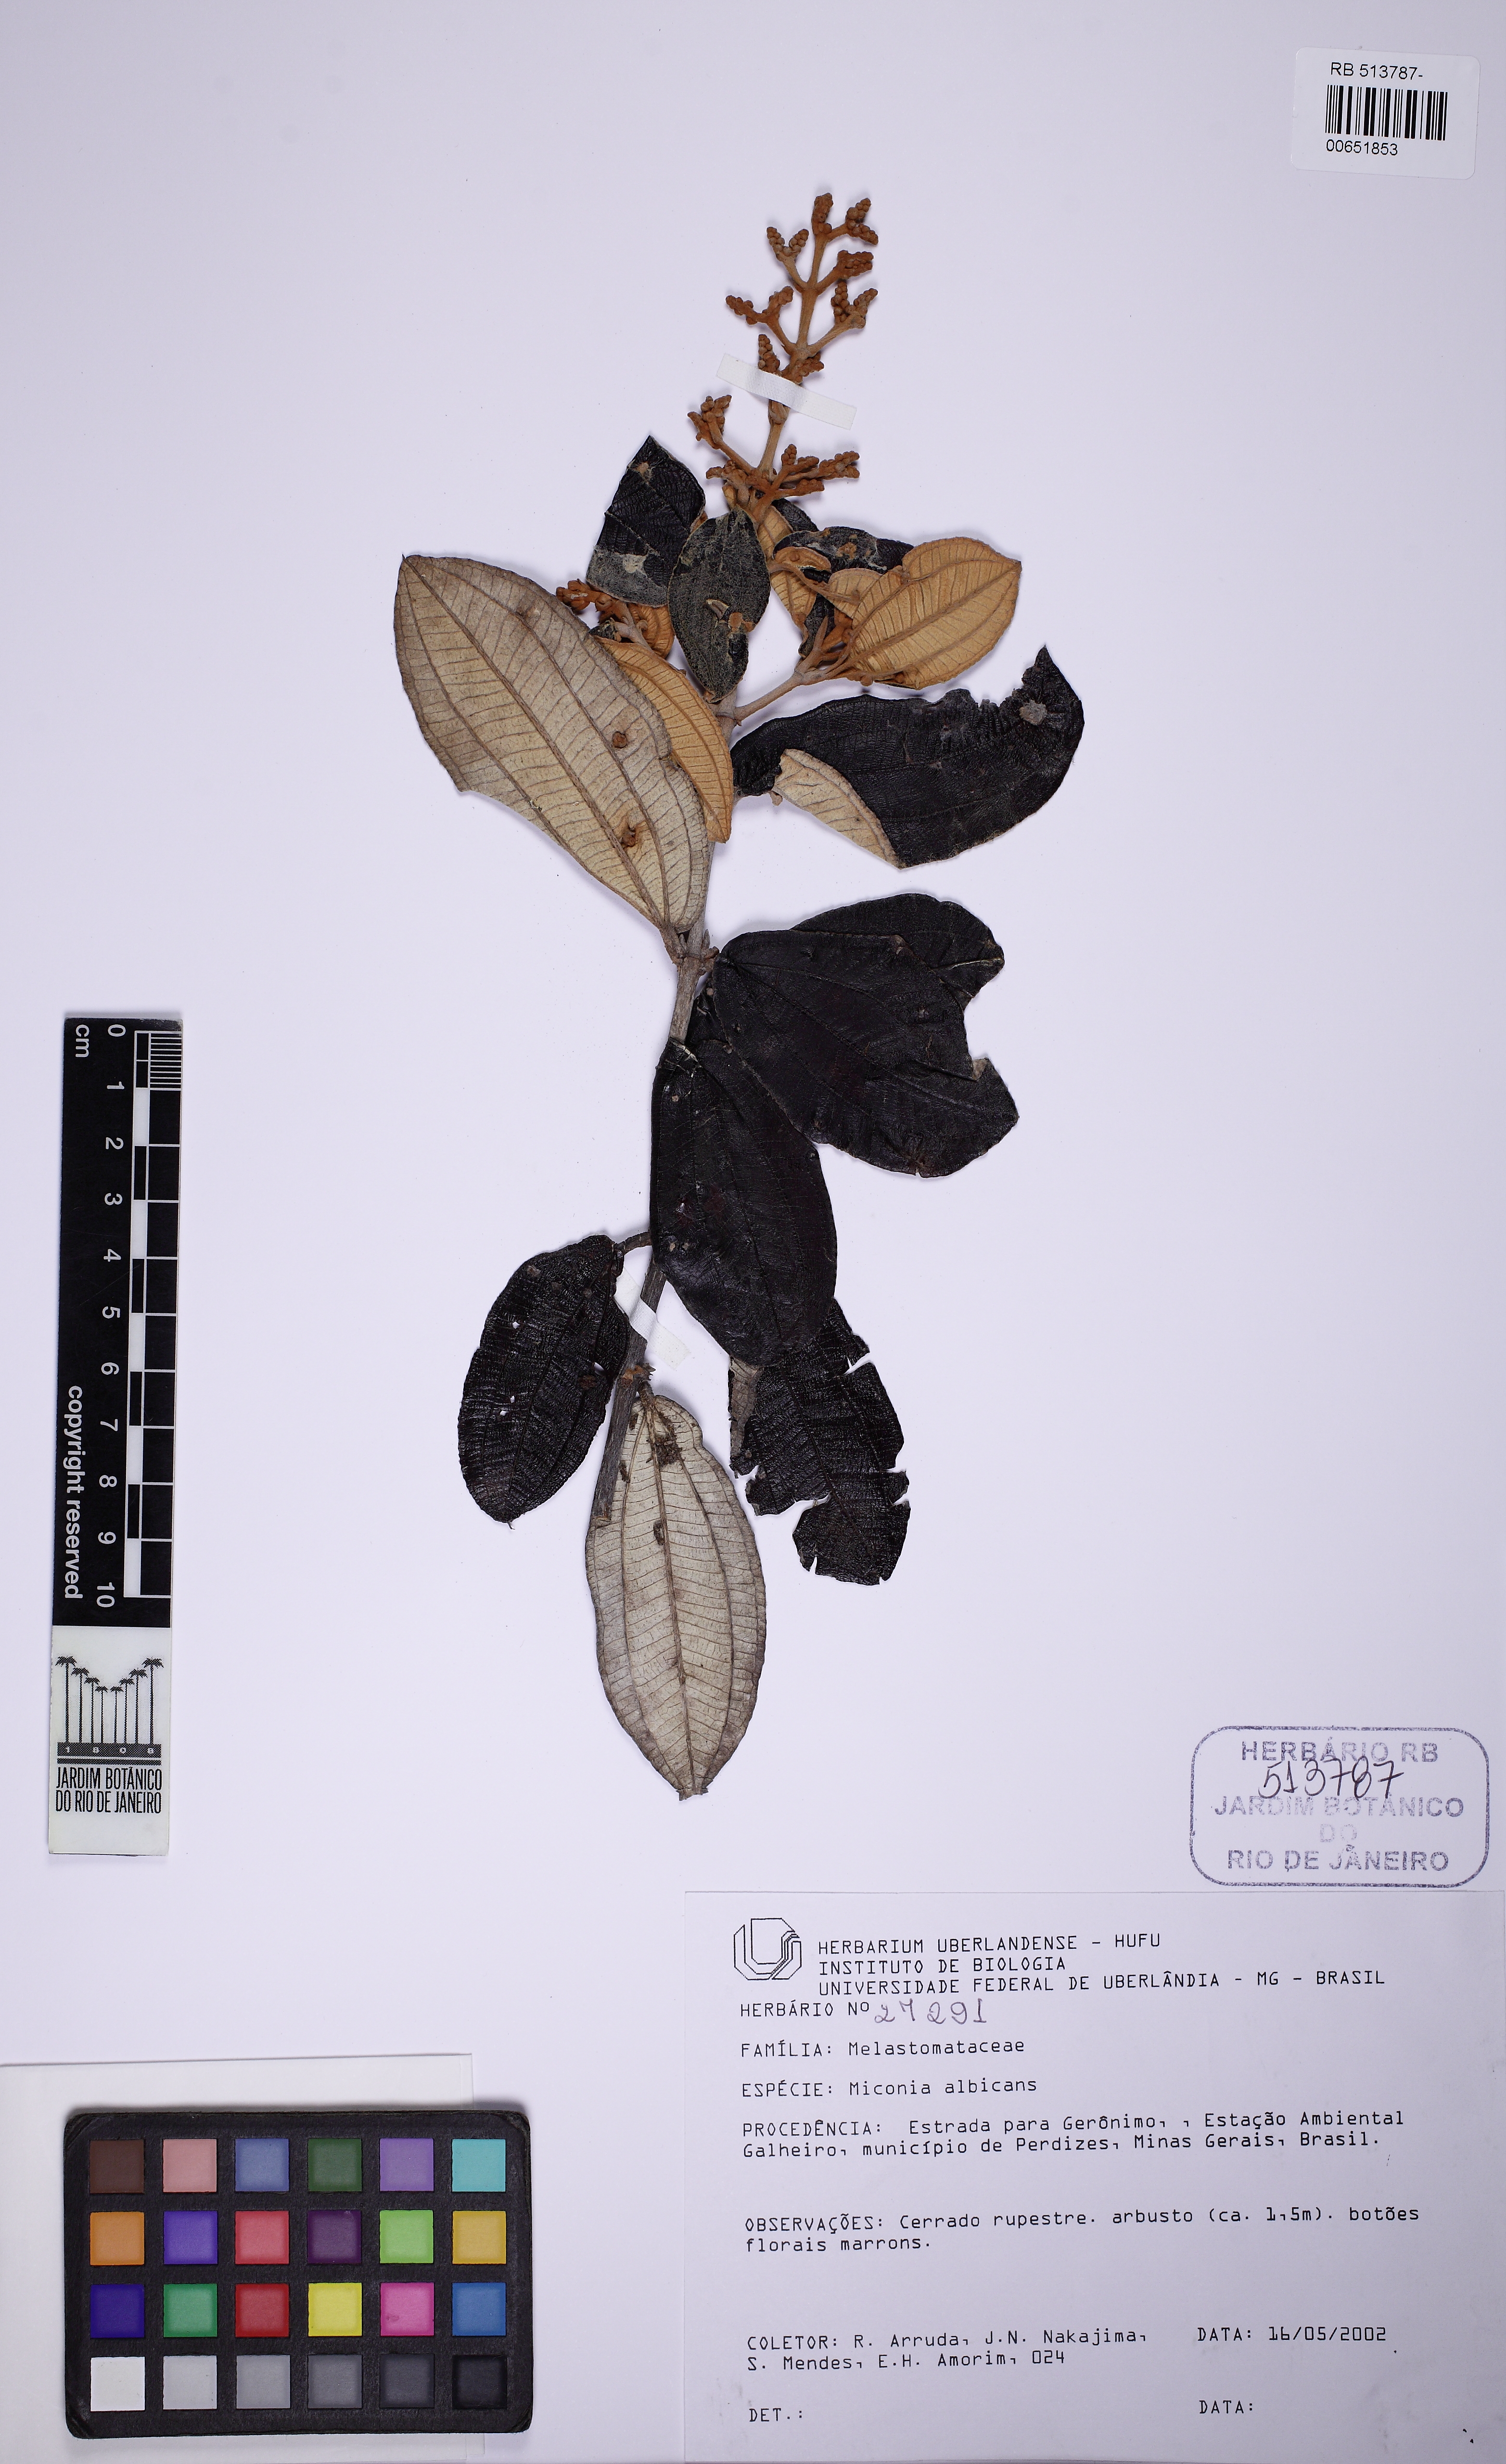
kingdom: Plantae
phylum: Tracheophyta
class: Magnoliopsida
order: Myrtales
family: Melastomataceae
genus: Miconia
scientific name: Miconia albicans
